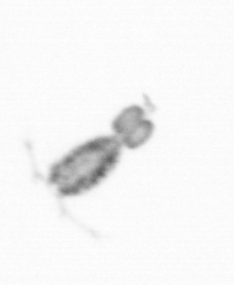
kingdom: Animalia
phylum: Arthropoda
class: Copepoda
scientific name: Copepoda
